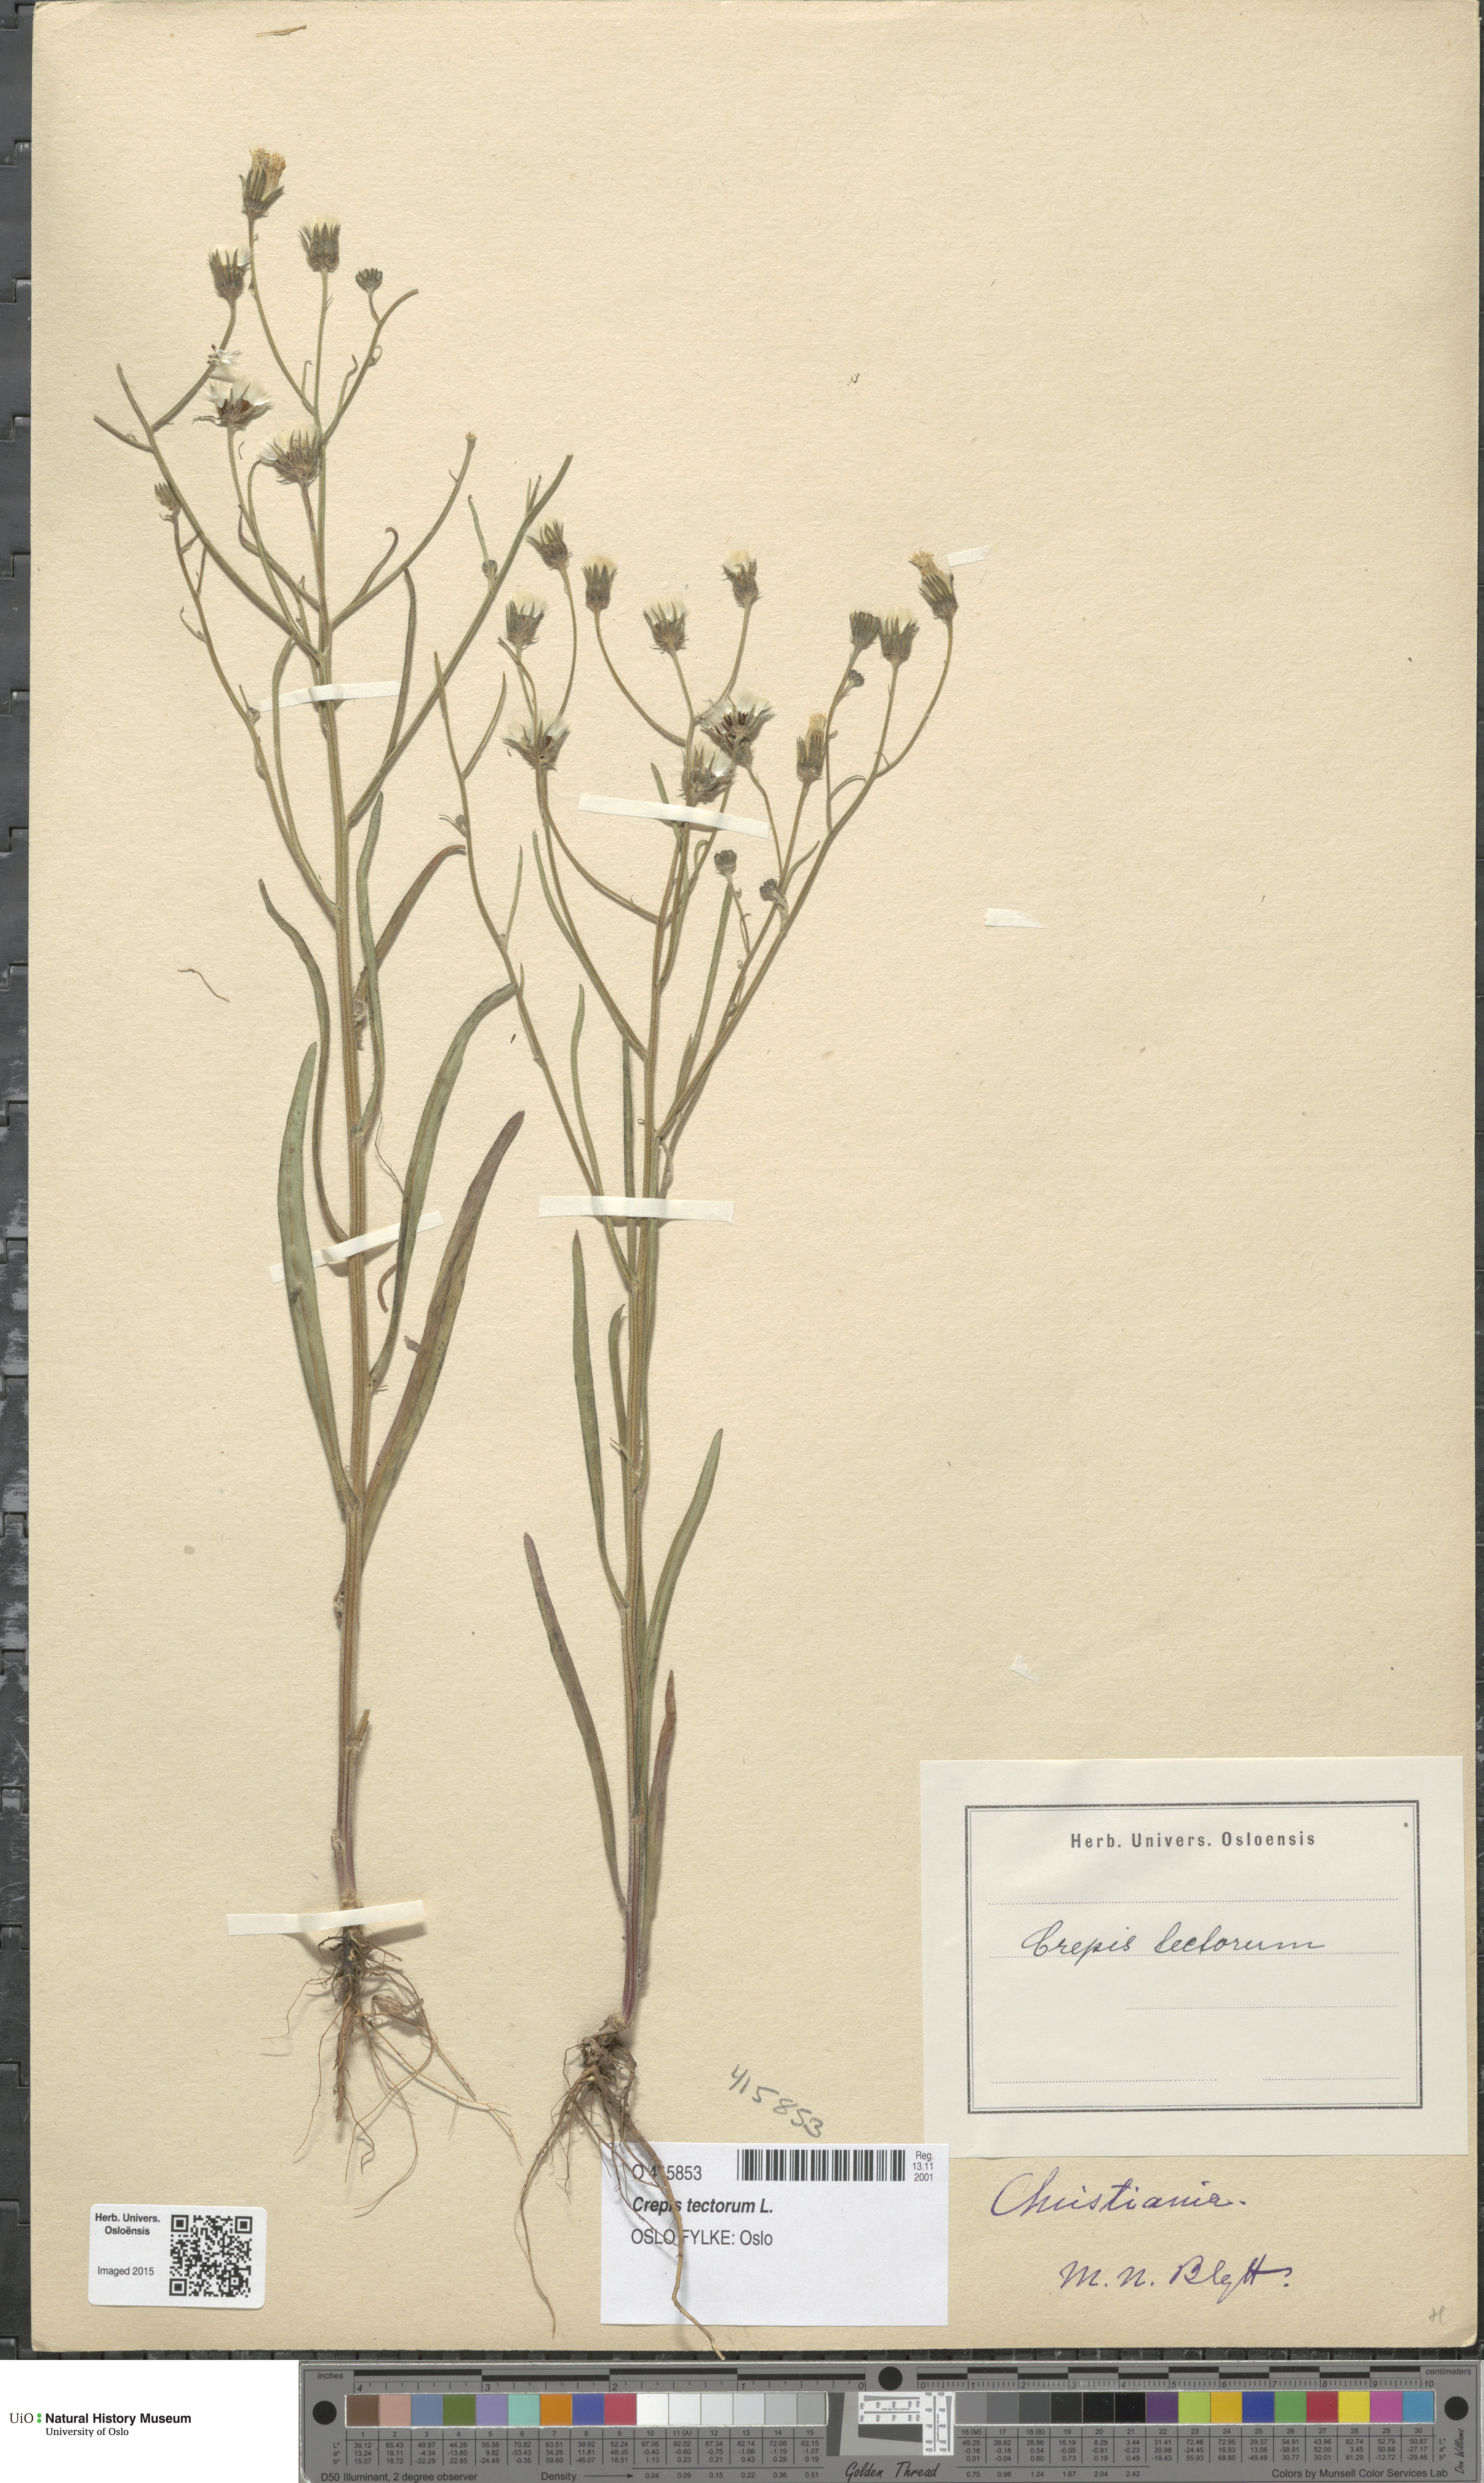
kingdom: Plantae
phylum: Tracheophyta
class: Magnoliopsida
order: Asterales
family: Asteraceae
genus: Crepis
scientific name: Crepis tectorum
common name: Narrow-leaved hawk's-beard
